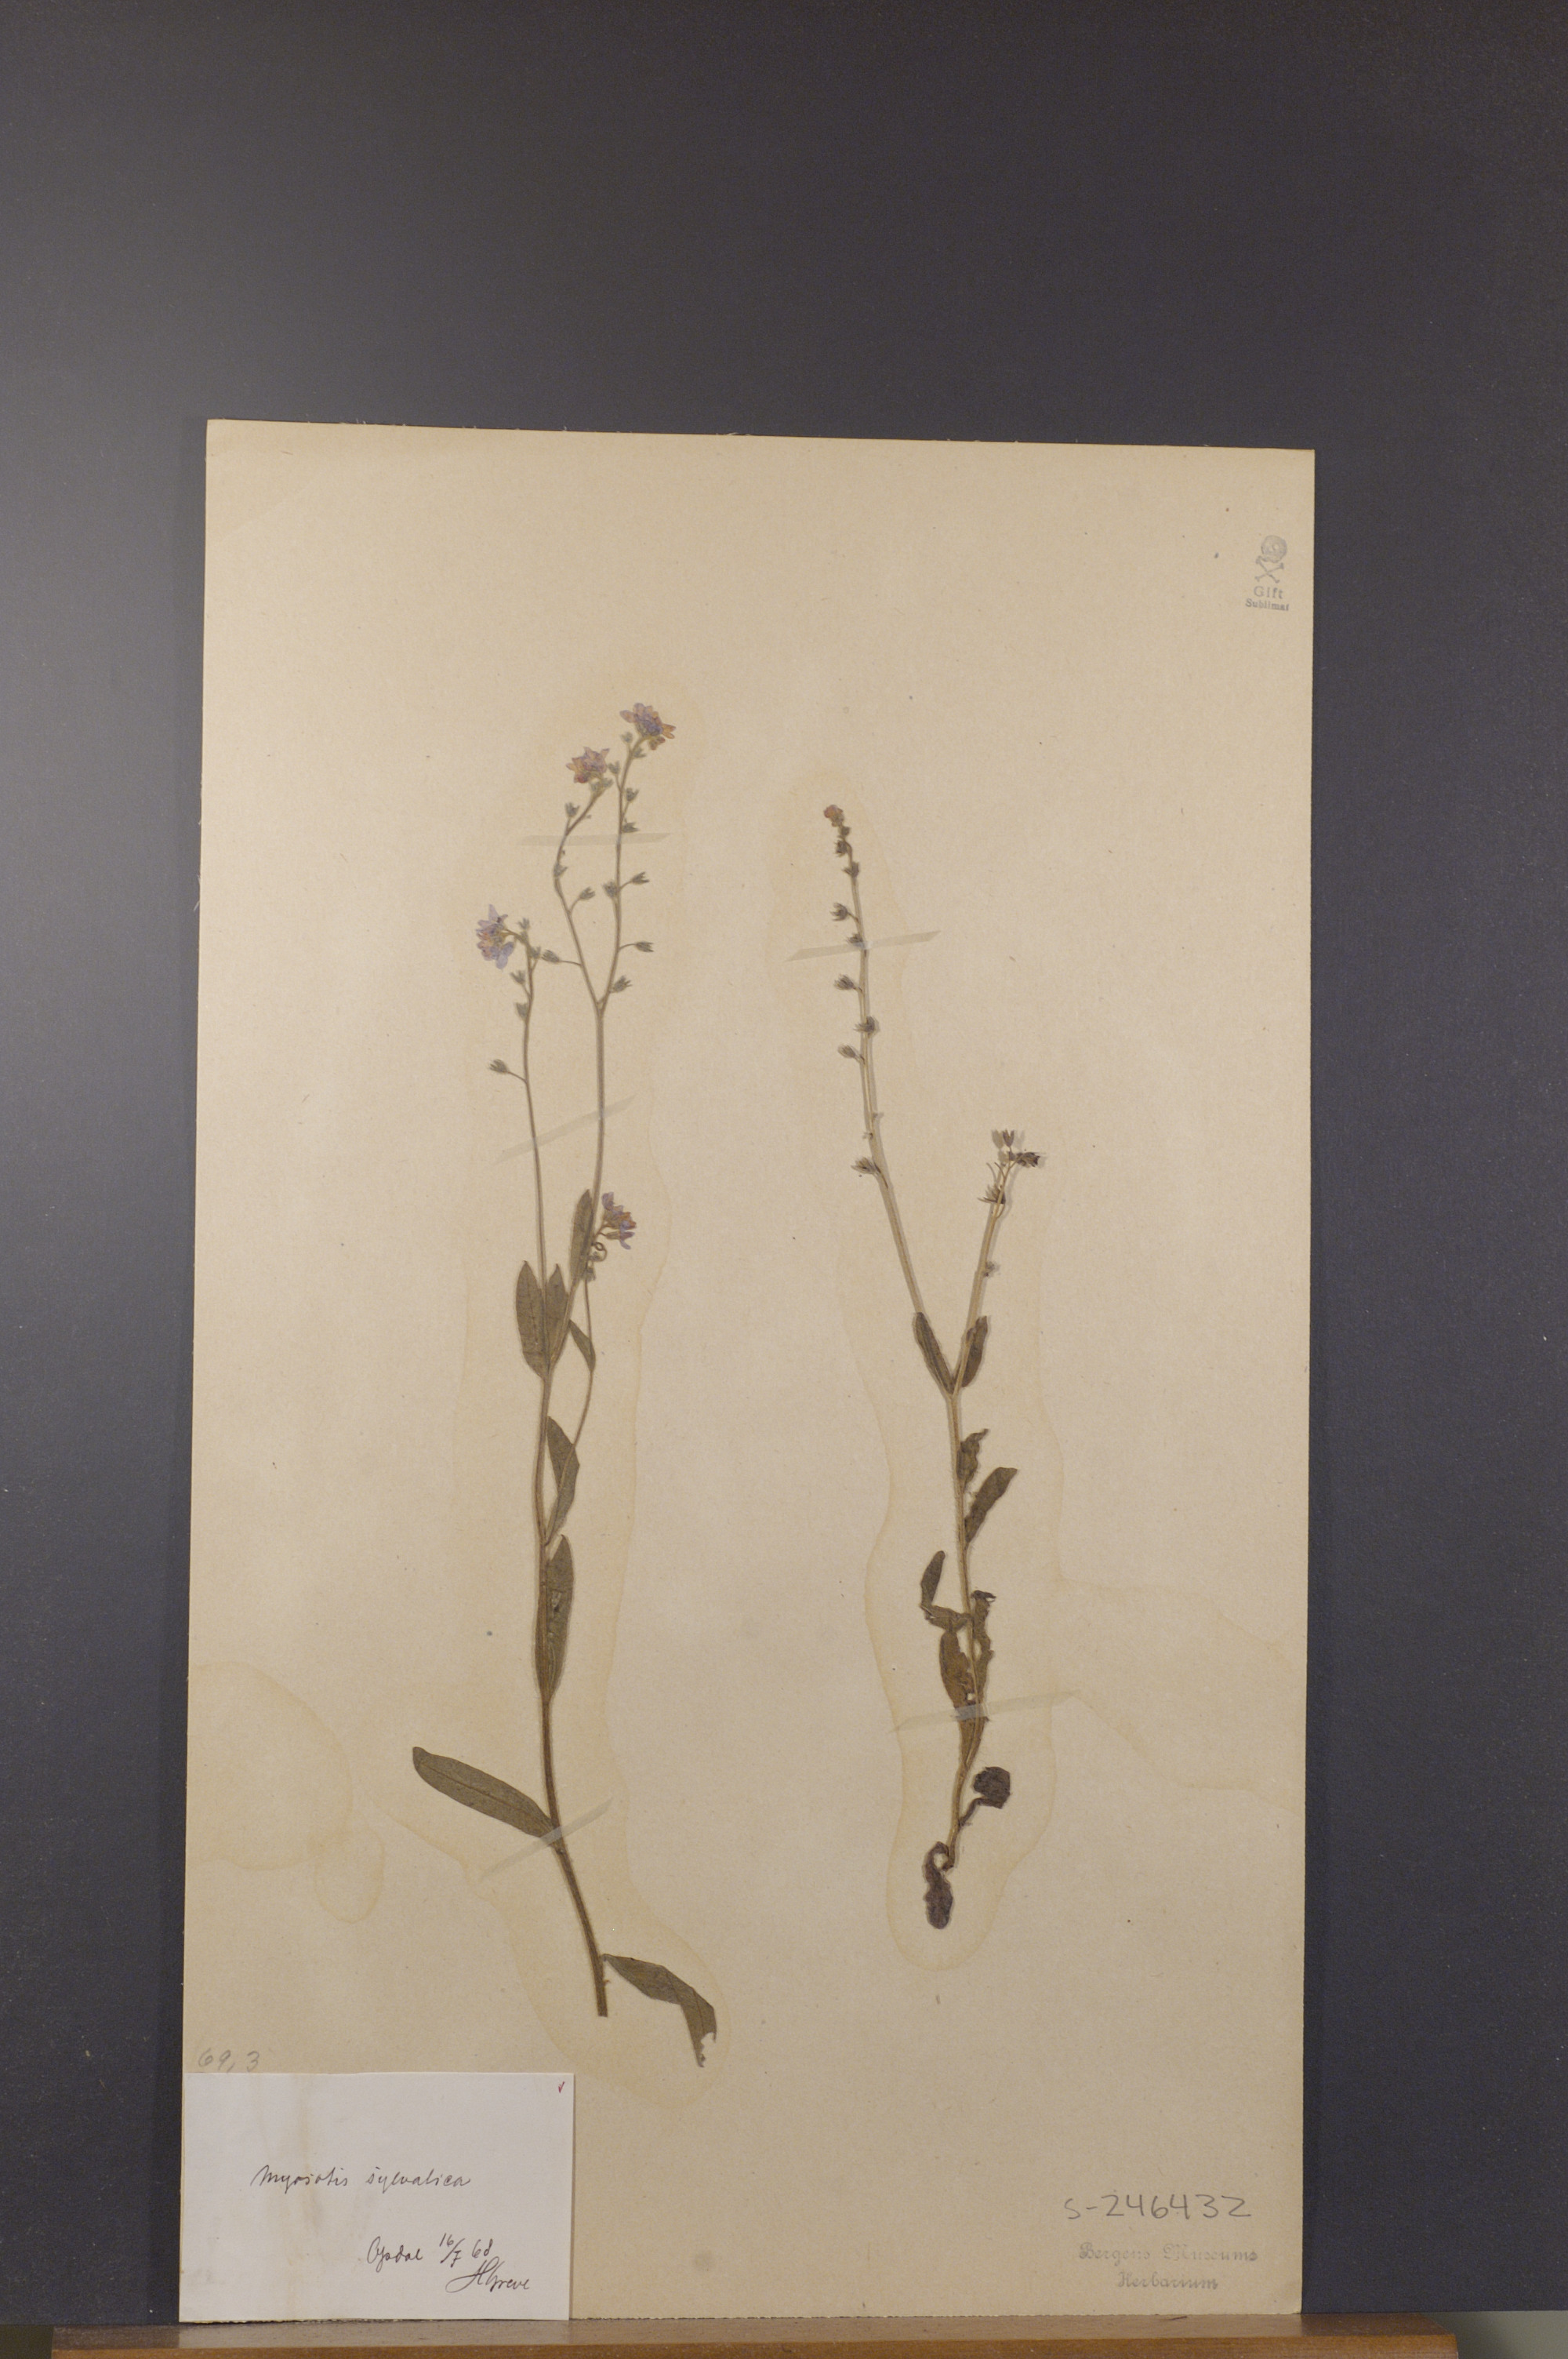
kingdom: Plantae
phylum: Tracheophyta
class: Magnoliopsida
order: Boraginales
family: Boraginaceae
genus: Myosotis
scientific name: Myosotis decumbens
